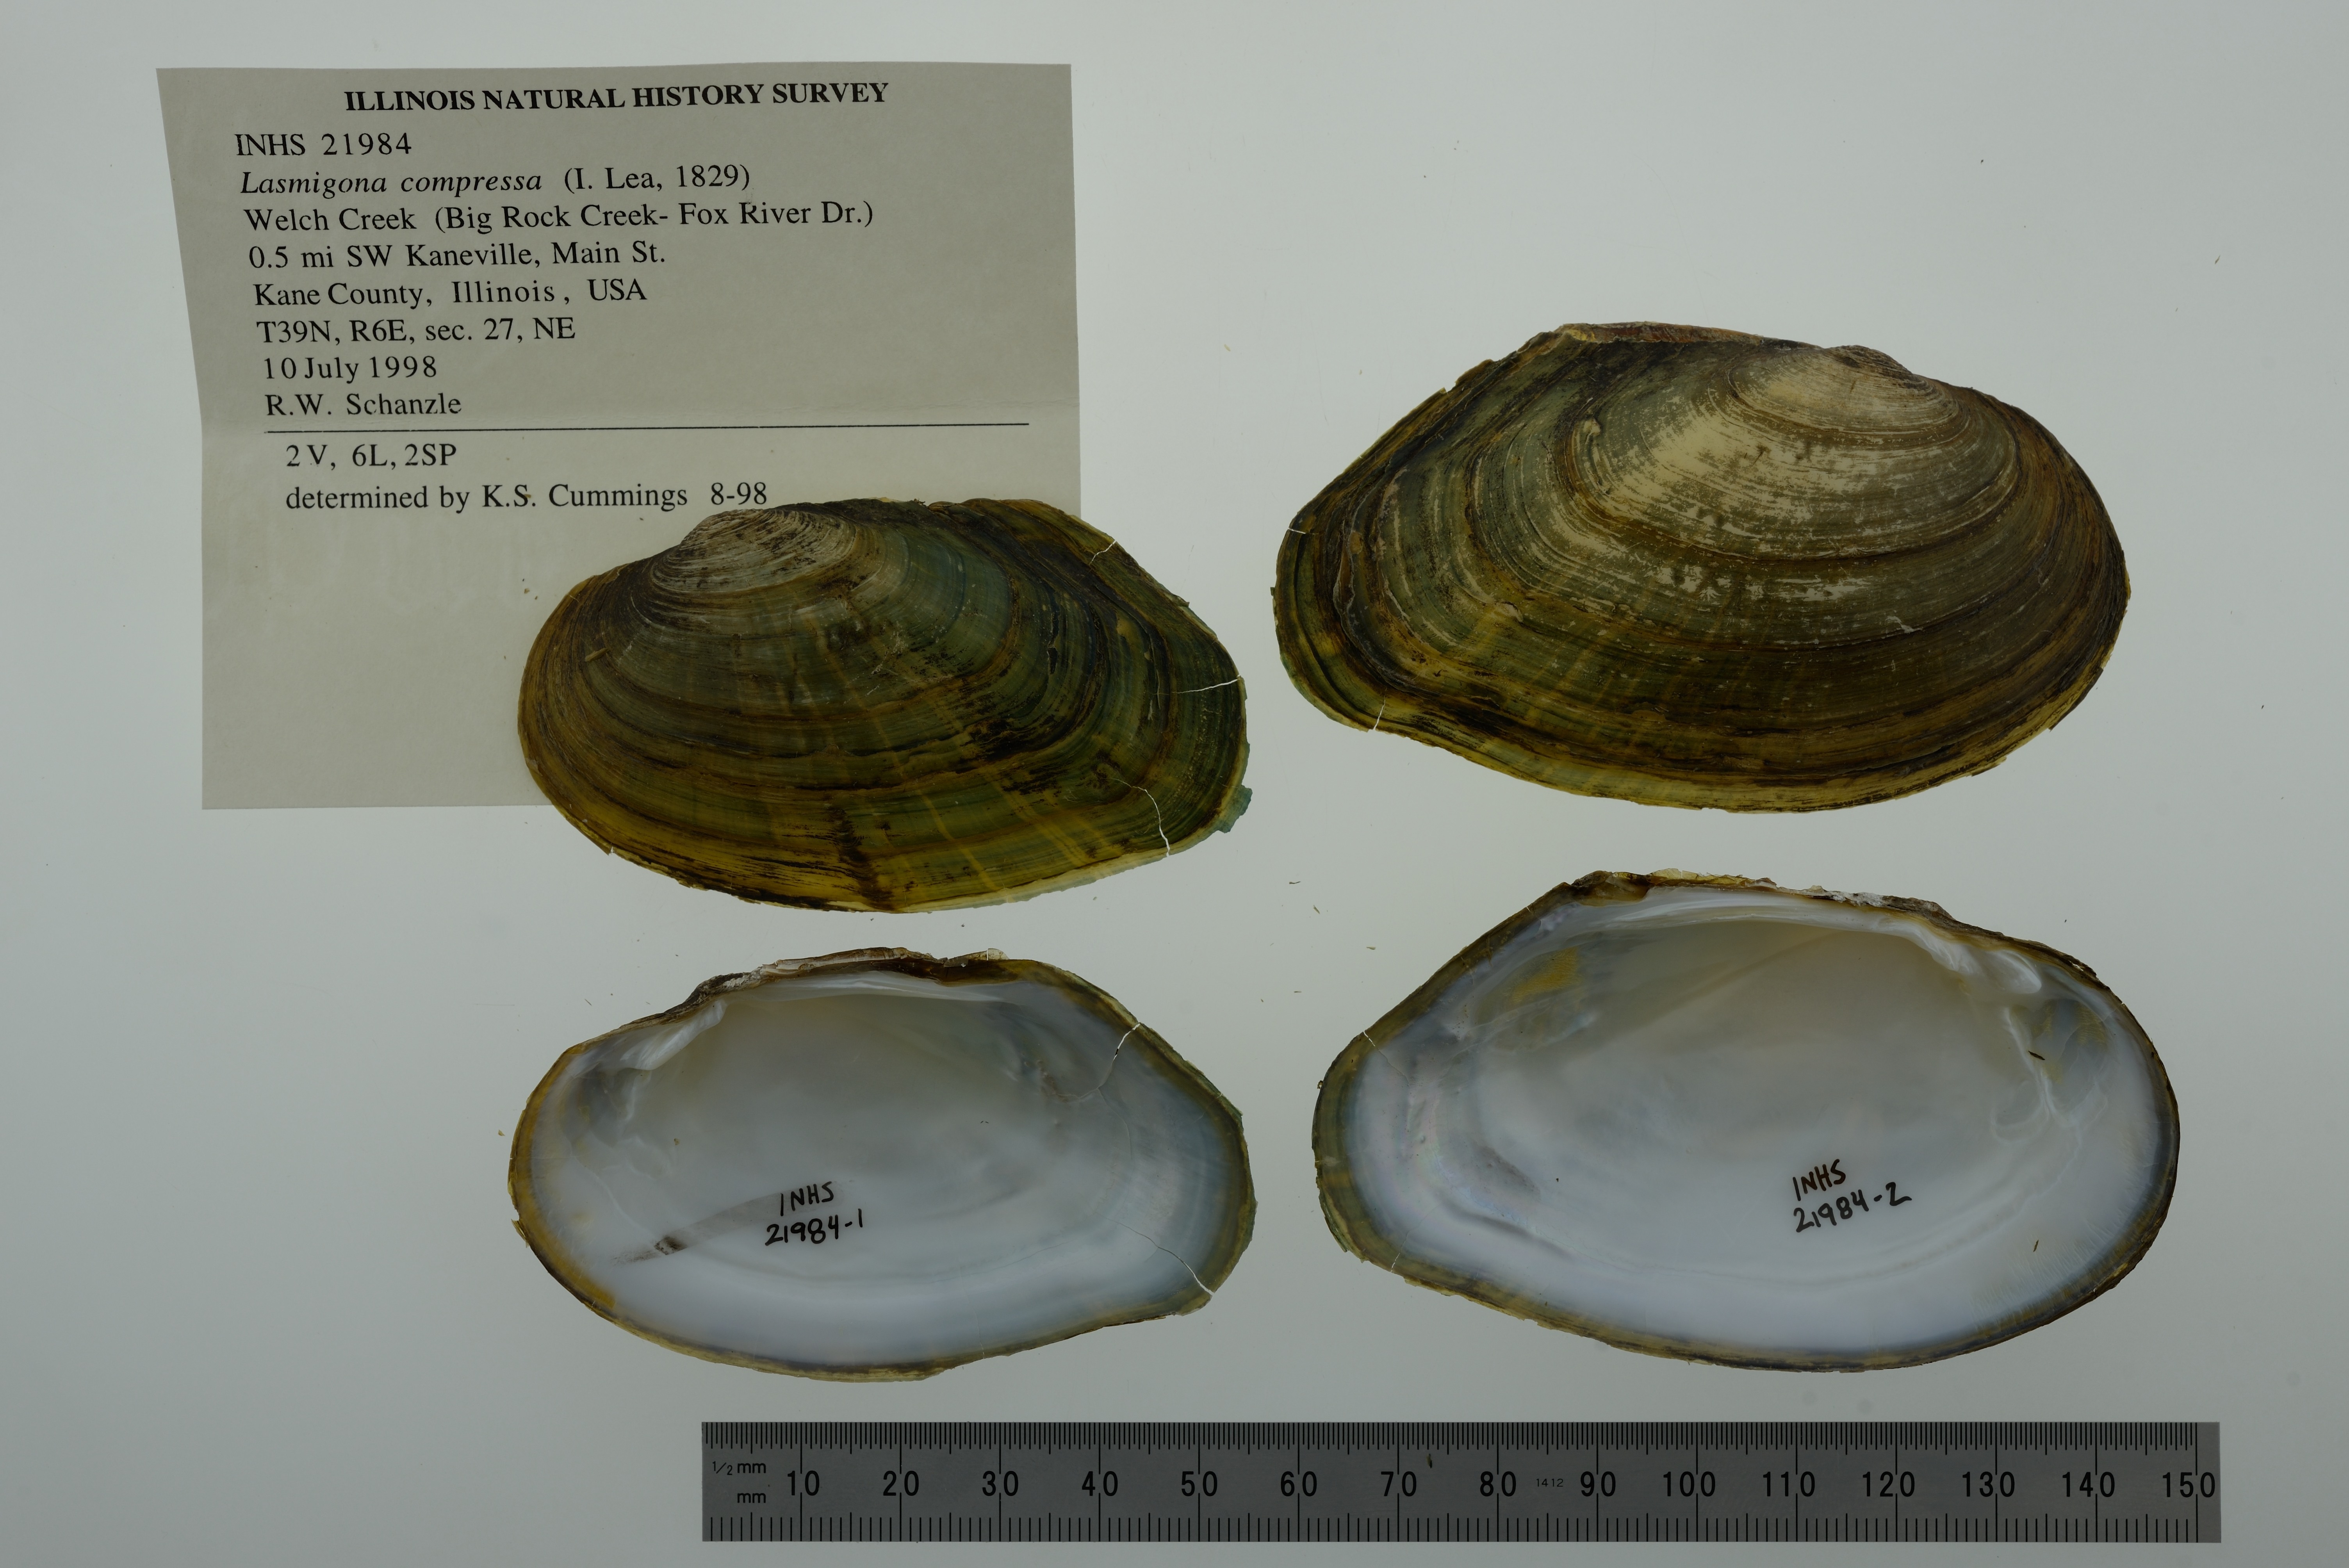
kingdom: Animalia
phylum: Mollusca
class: Bivalvia
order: Unionida
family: Unionidae
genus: Lasmigona
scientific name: Lasmigona compressa
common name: Creek heelsplitter
